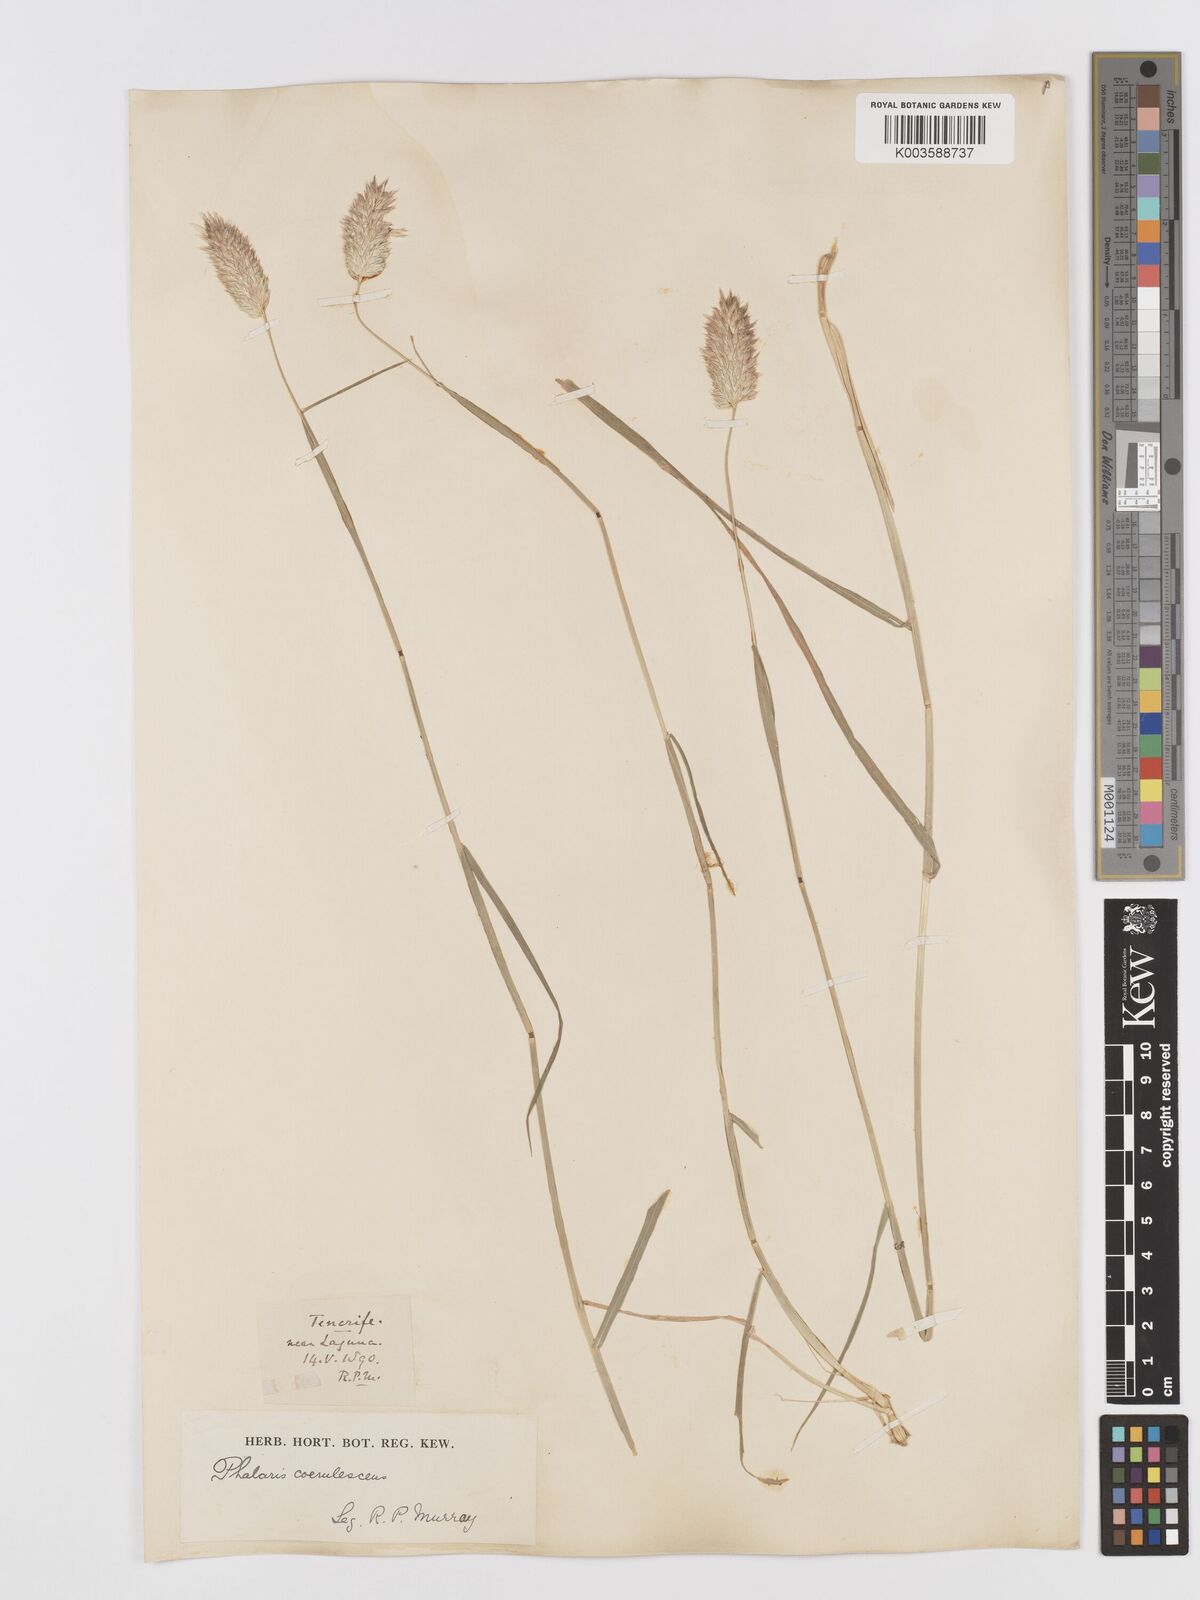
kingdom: Plantae
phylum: Tracheophyta
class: Liliopsida
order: Poales
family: Poaceae
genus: Phalaris
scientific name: Phalaris coerulescens
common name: Sunolgrass
